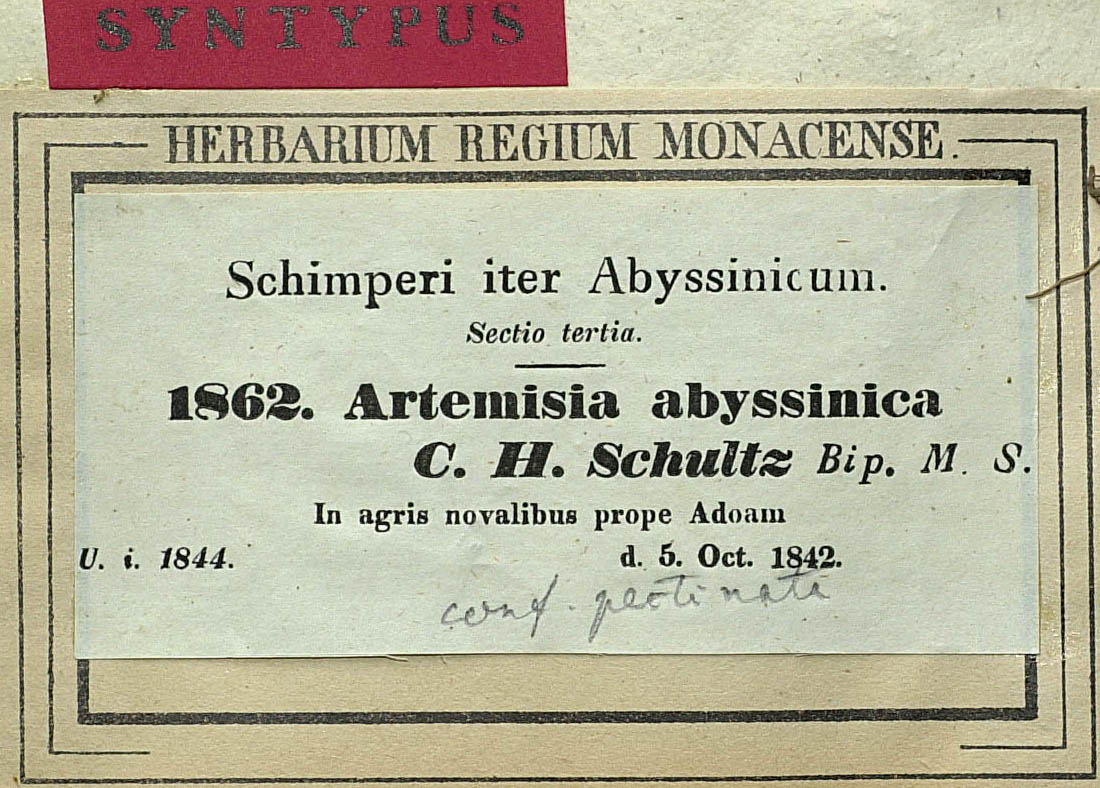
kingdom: Plantae
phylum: Tracheophyta
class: Magnoliopsida
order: Asterales
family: Asteraceae
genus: Artemisia
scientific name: Artemisia abyssinica
